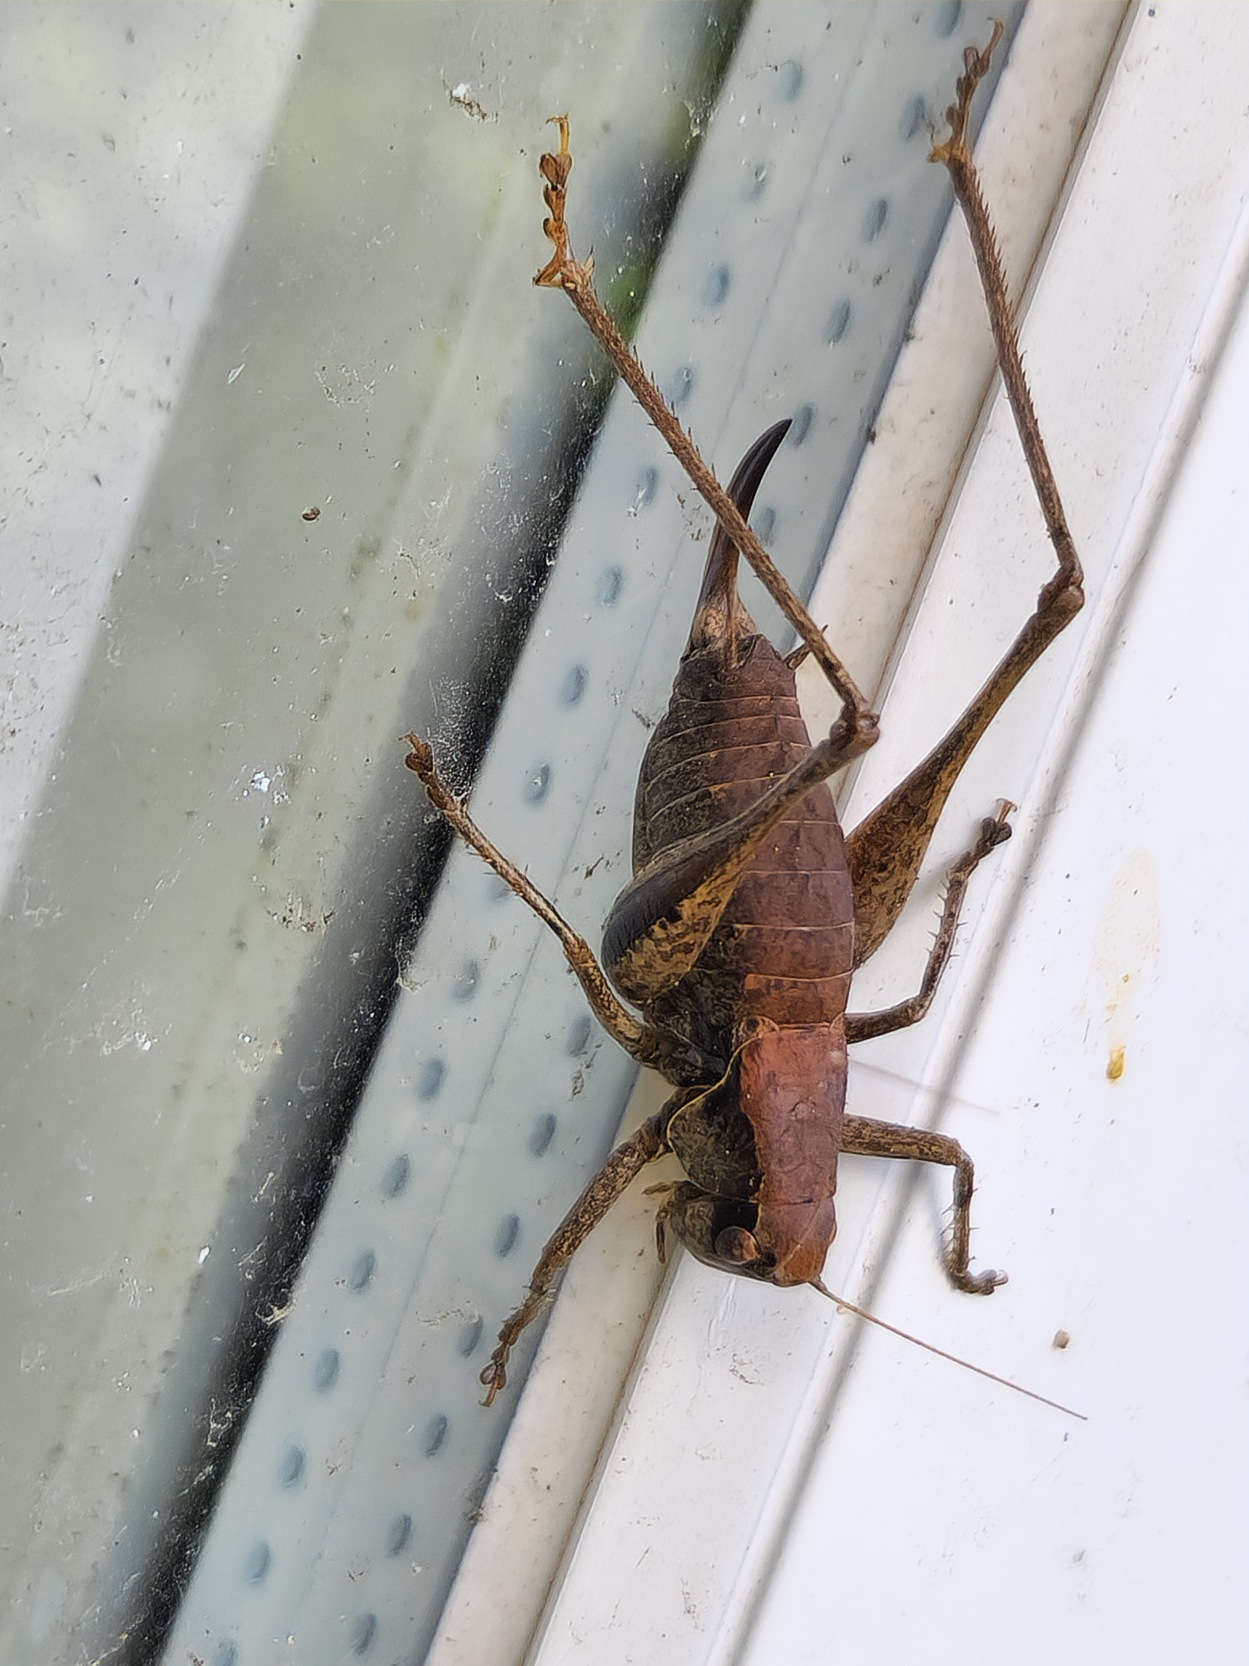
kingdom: Animalia
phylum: Arthropoda
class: Insecta
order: Orthoptera
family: Tettigoniidae
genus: Pholidoptera
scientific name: Pholidoptera griseoaptera
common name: Buskgræshoppe
